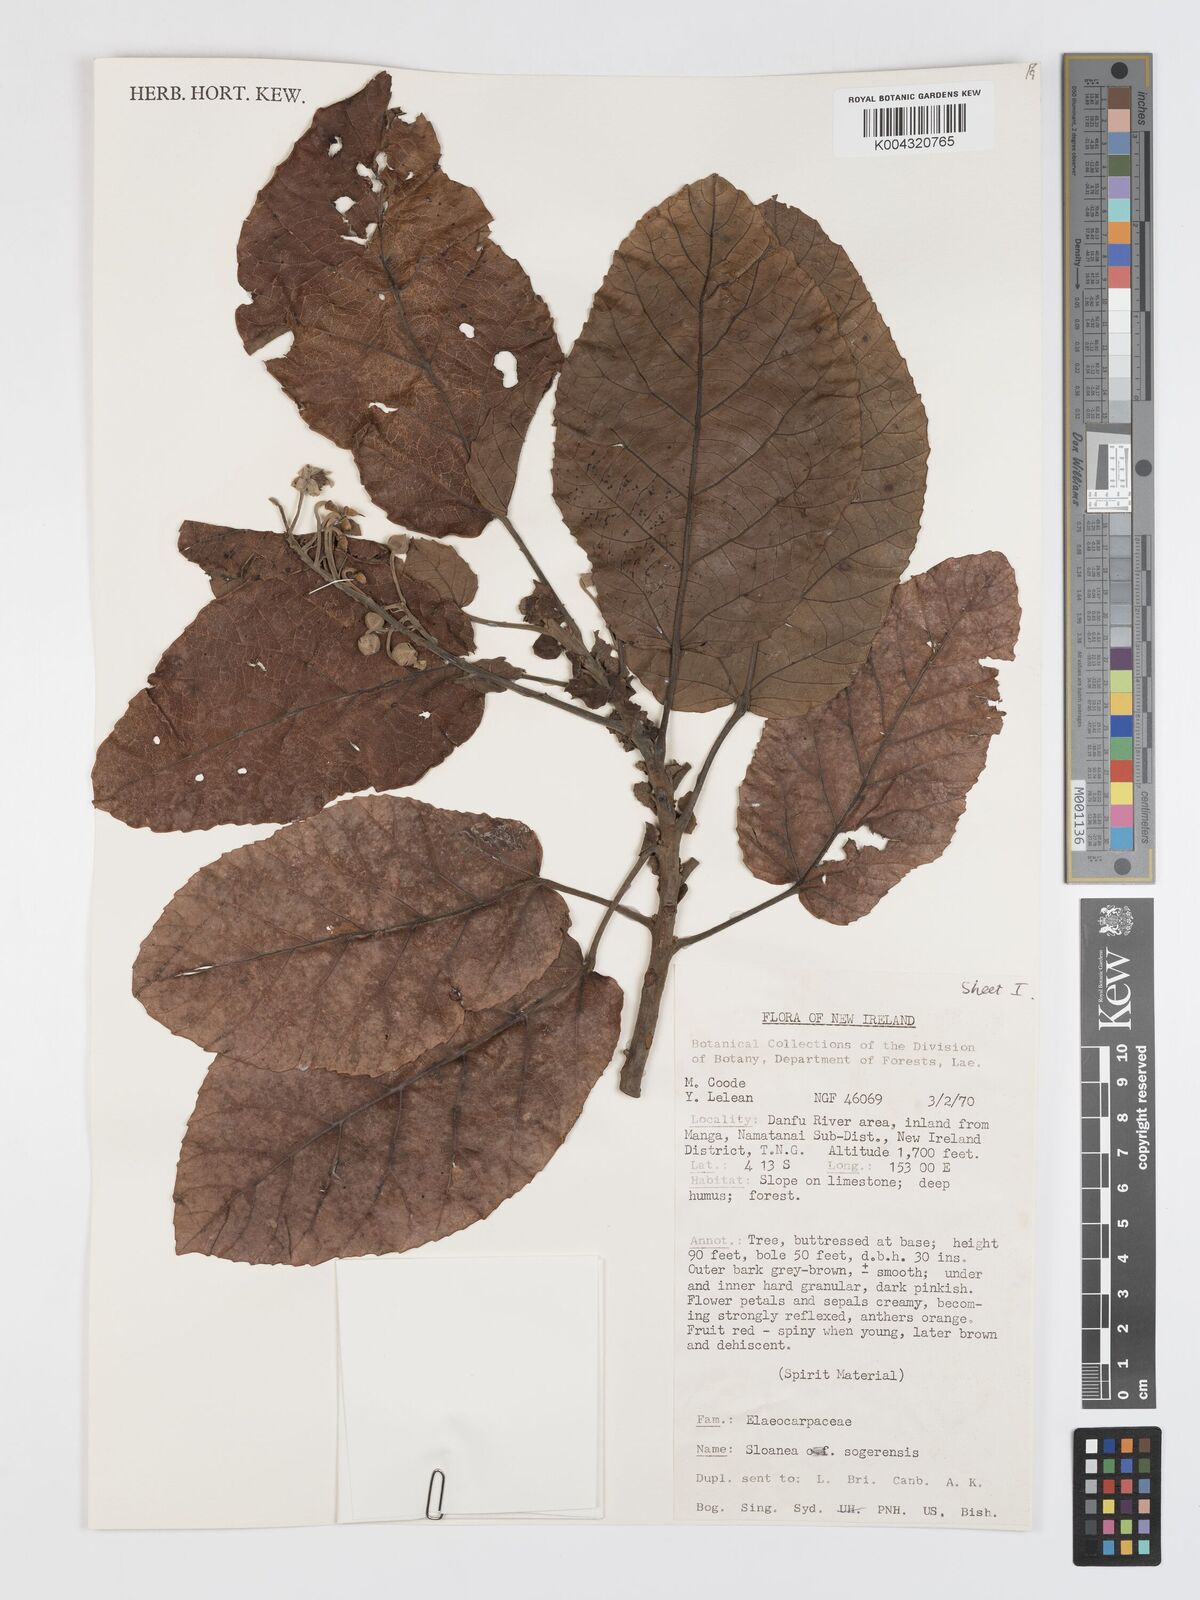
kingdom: Plantae
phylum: Tracheophyta
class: Magnoliopsida
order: Oxalidales
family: Elaeocarpaceae
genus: Sloanea
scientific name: Sloanea sogerensis
